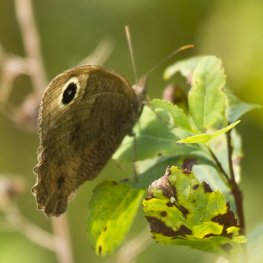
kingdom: Animalia
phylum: Arthropoda
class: Insecta
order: Lepidoptera
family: Nymphalidae
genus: Cercyonis
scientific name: Cercyonis pegala
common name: Common Wood-Nymph
